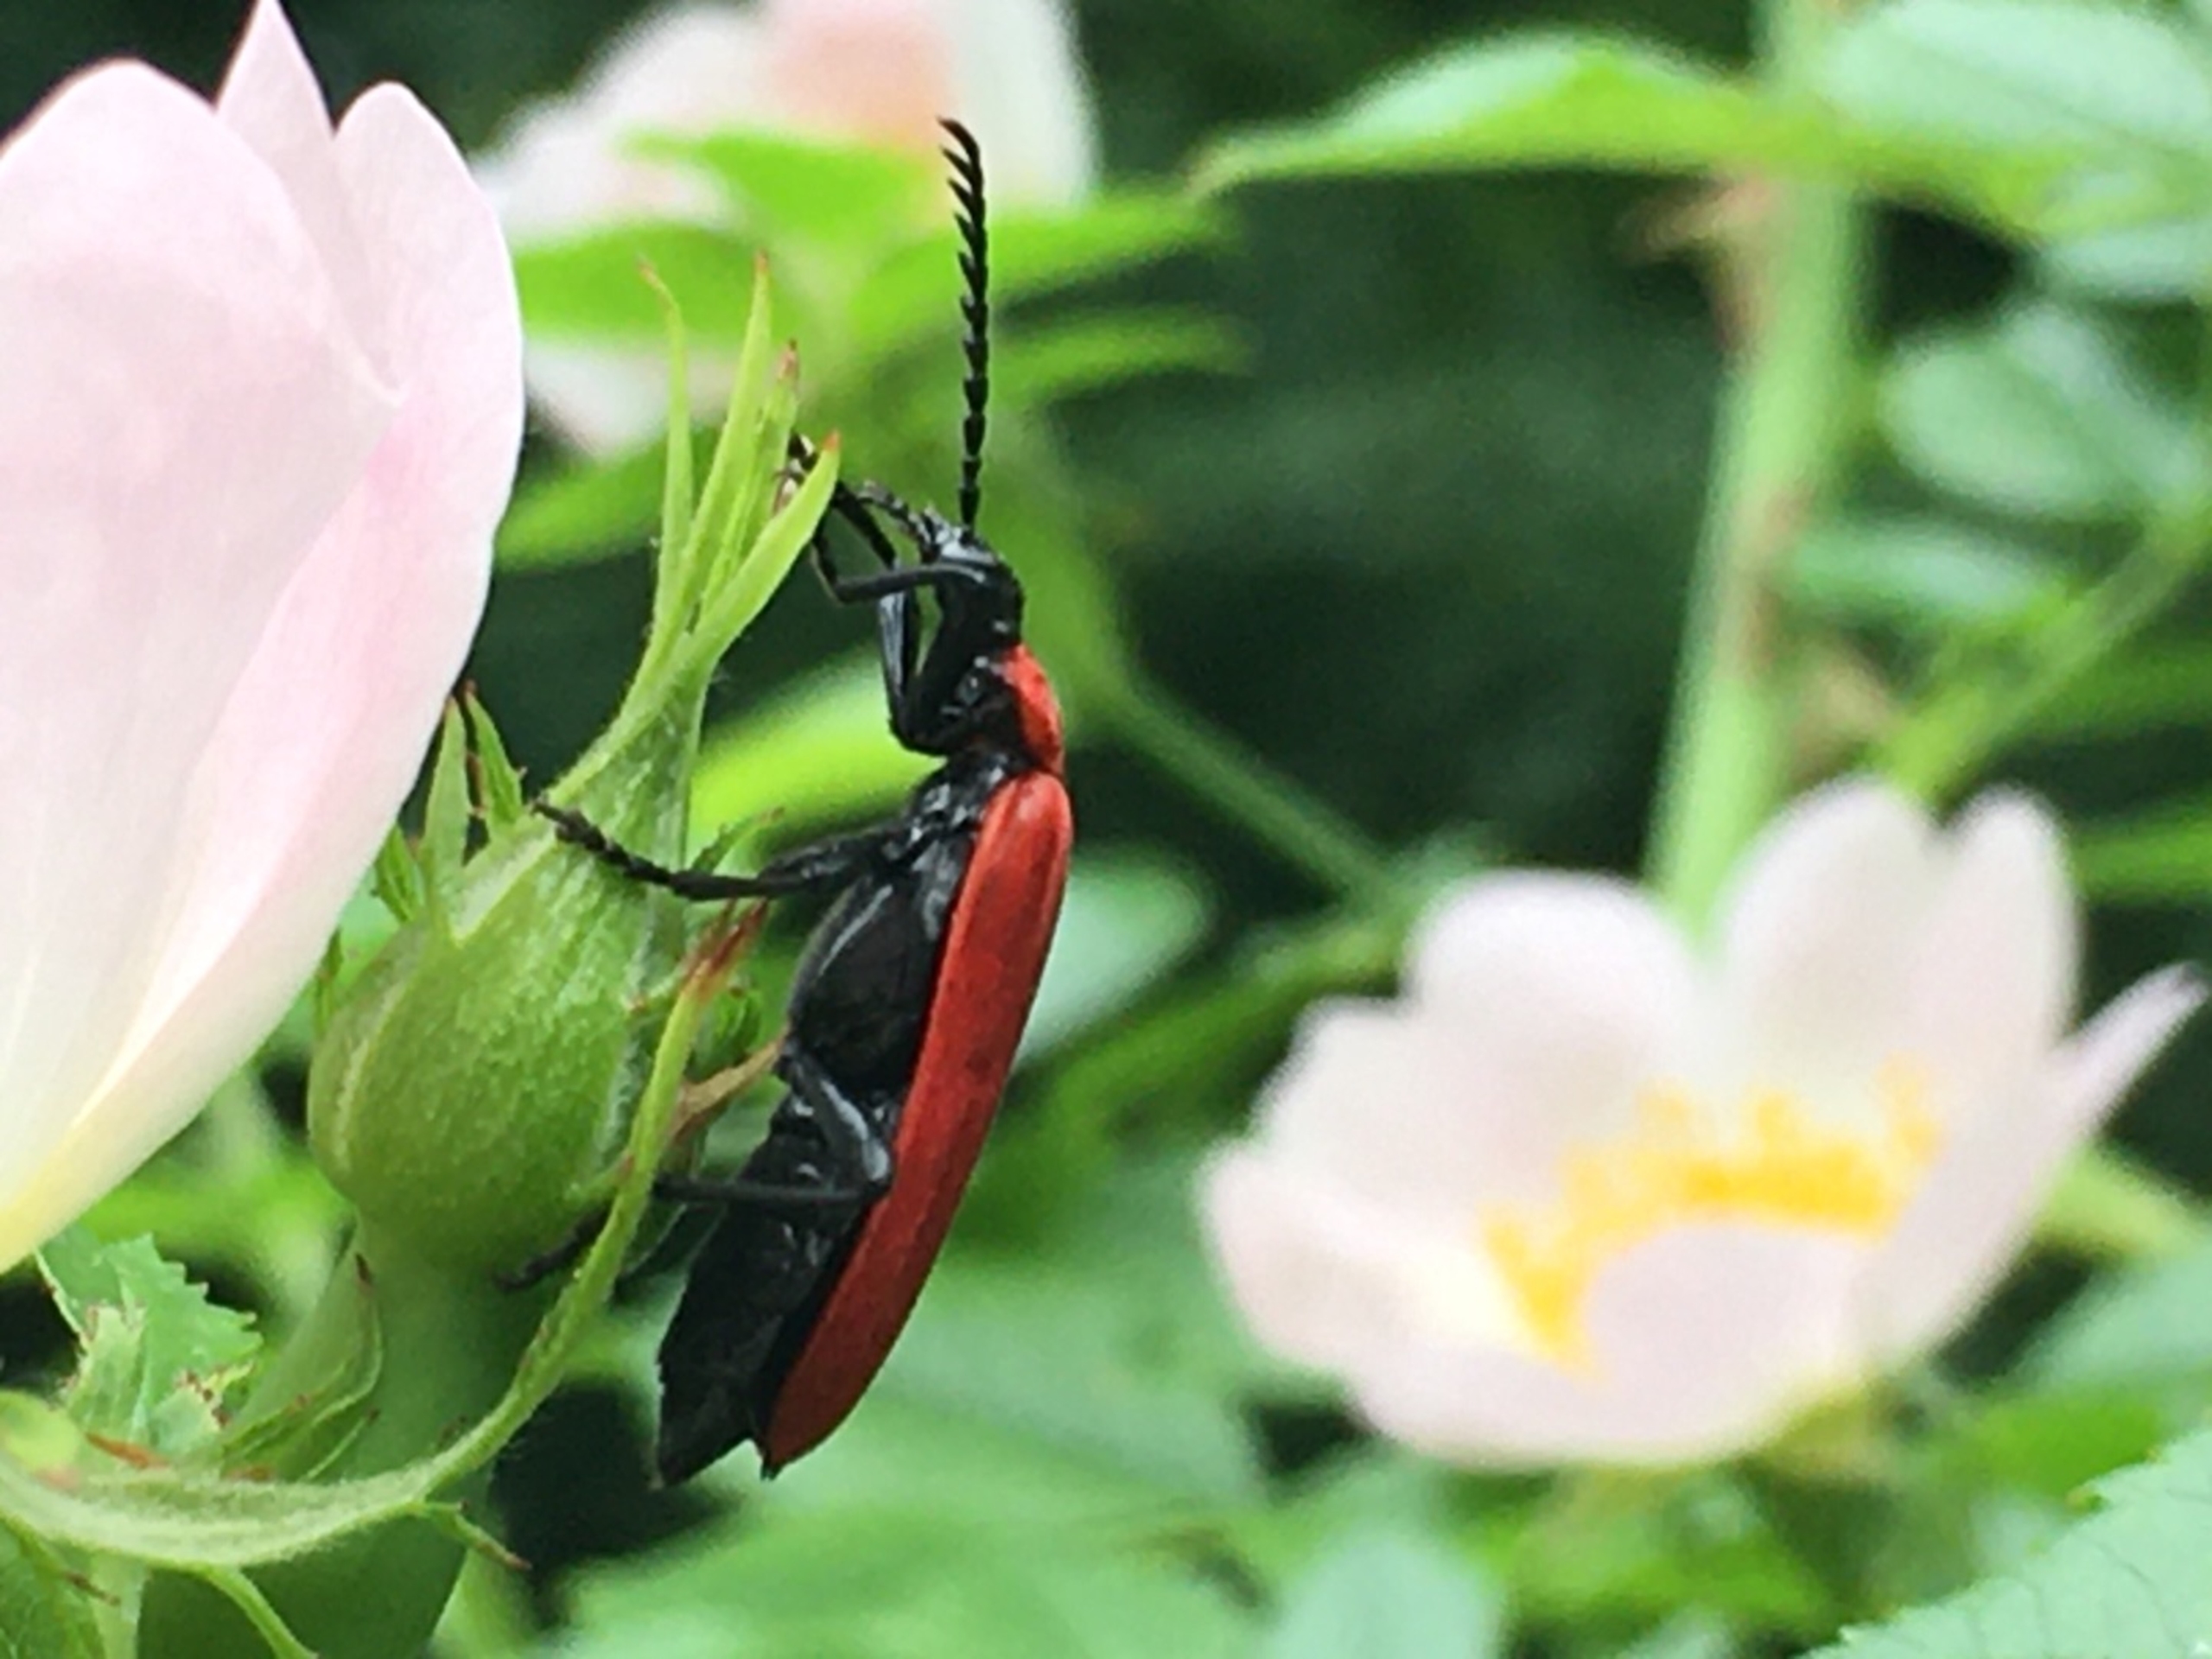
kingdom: Animalia
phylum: Arthropoda
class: Insecta
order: Coleoptera
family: Pyrochroidae
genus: Pyrochroa
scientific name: Pyrochroa coccinea
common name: Sorthovedet kardinalbille
